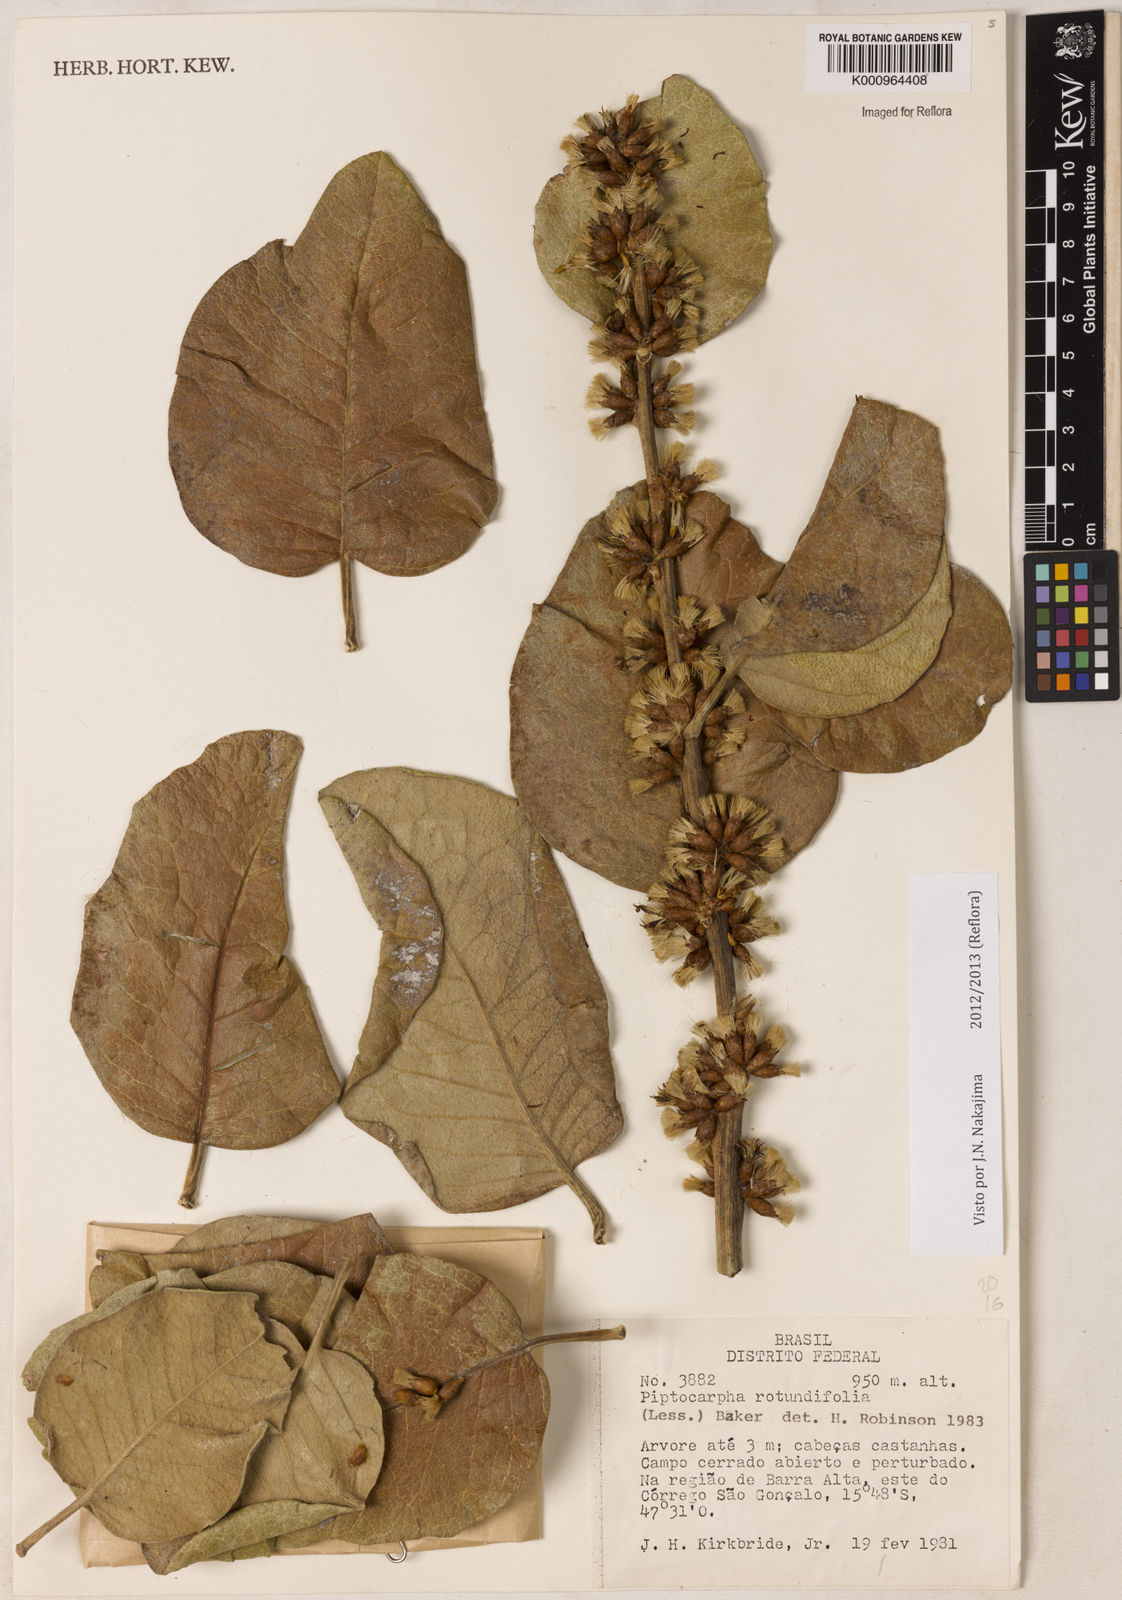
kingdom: Plantae
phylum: Tracheophyta
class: Magnoliopsida
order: Asterales
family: Asteraceae
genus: Piptocarpha
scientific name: Piptocarpha rotundifolia
